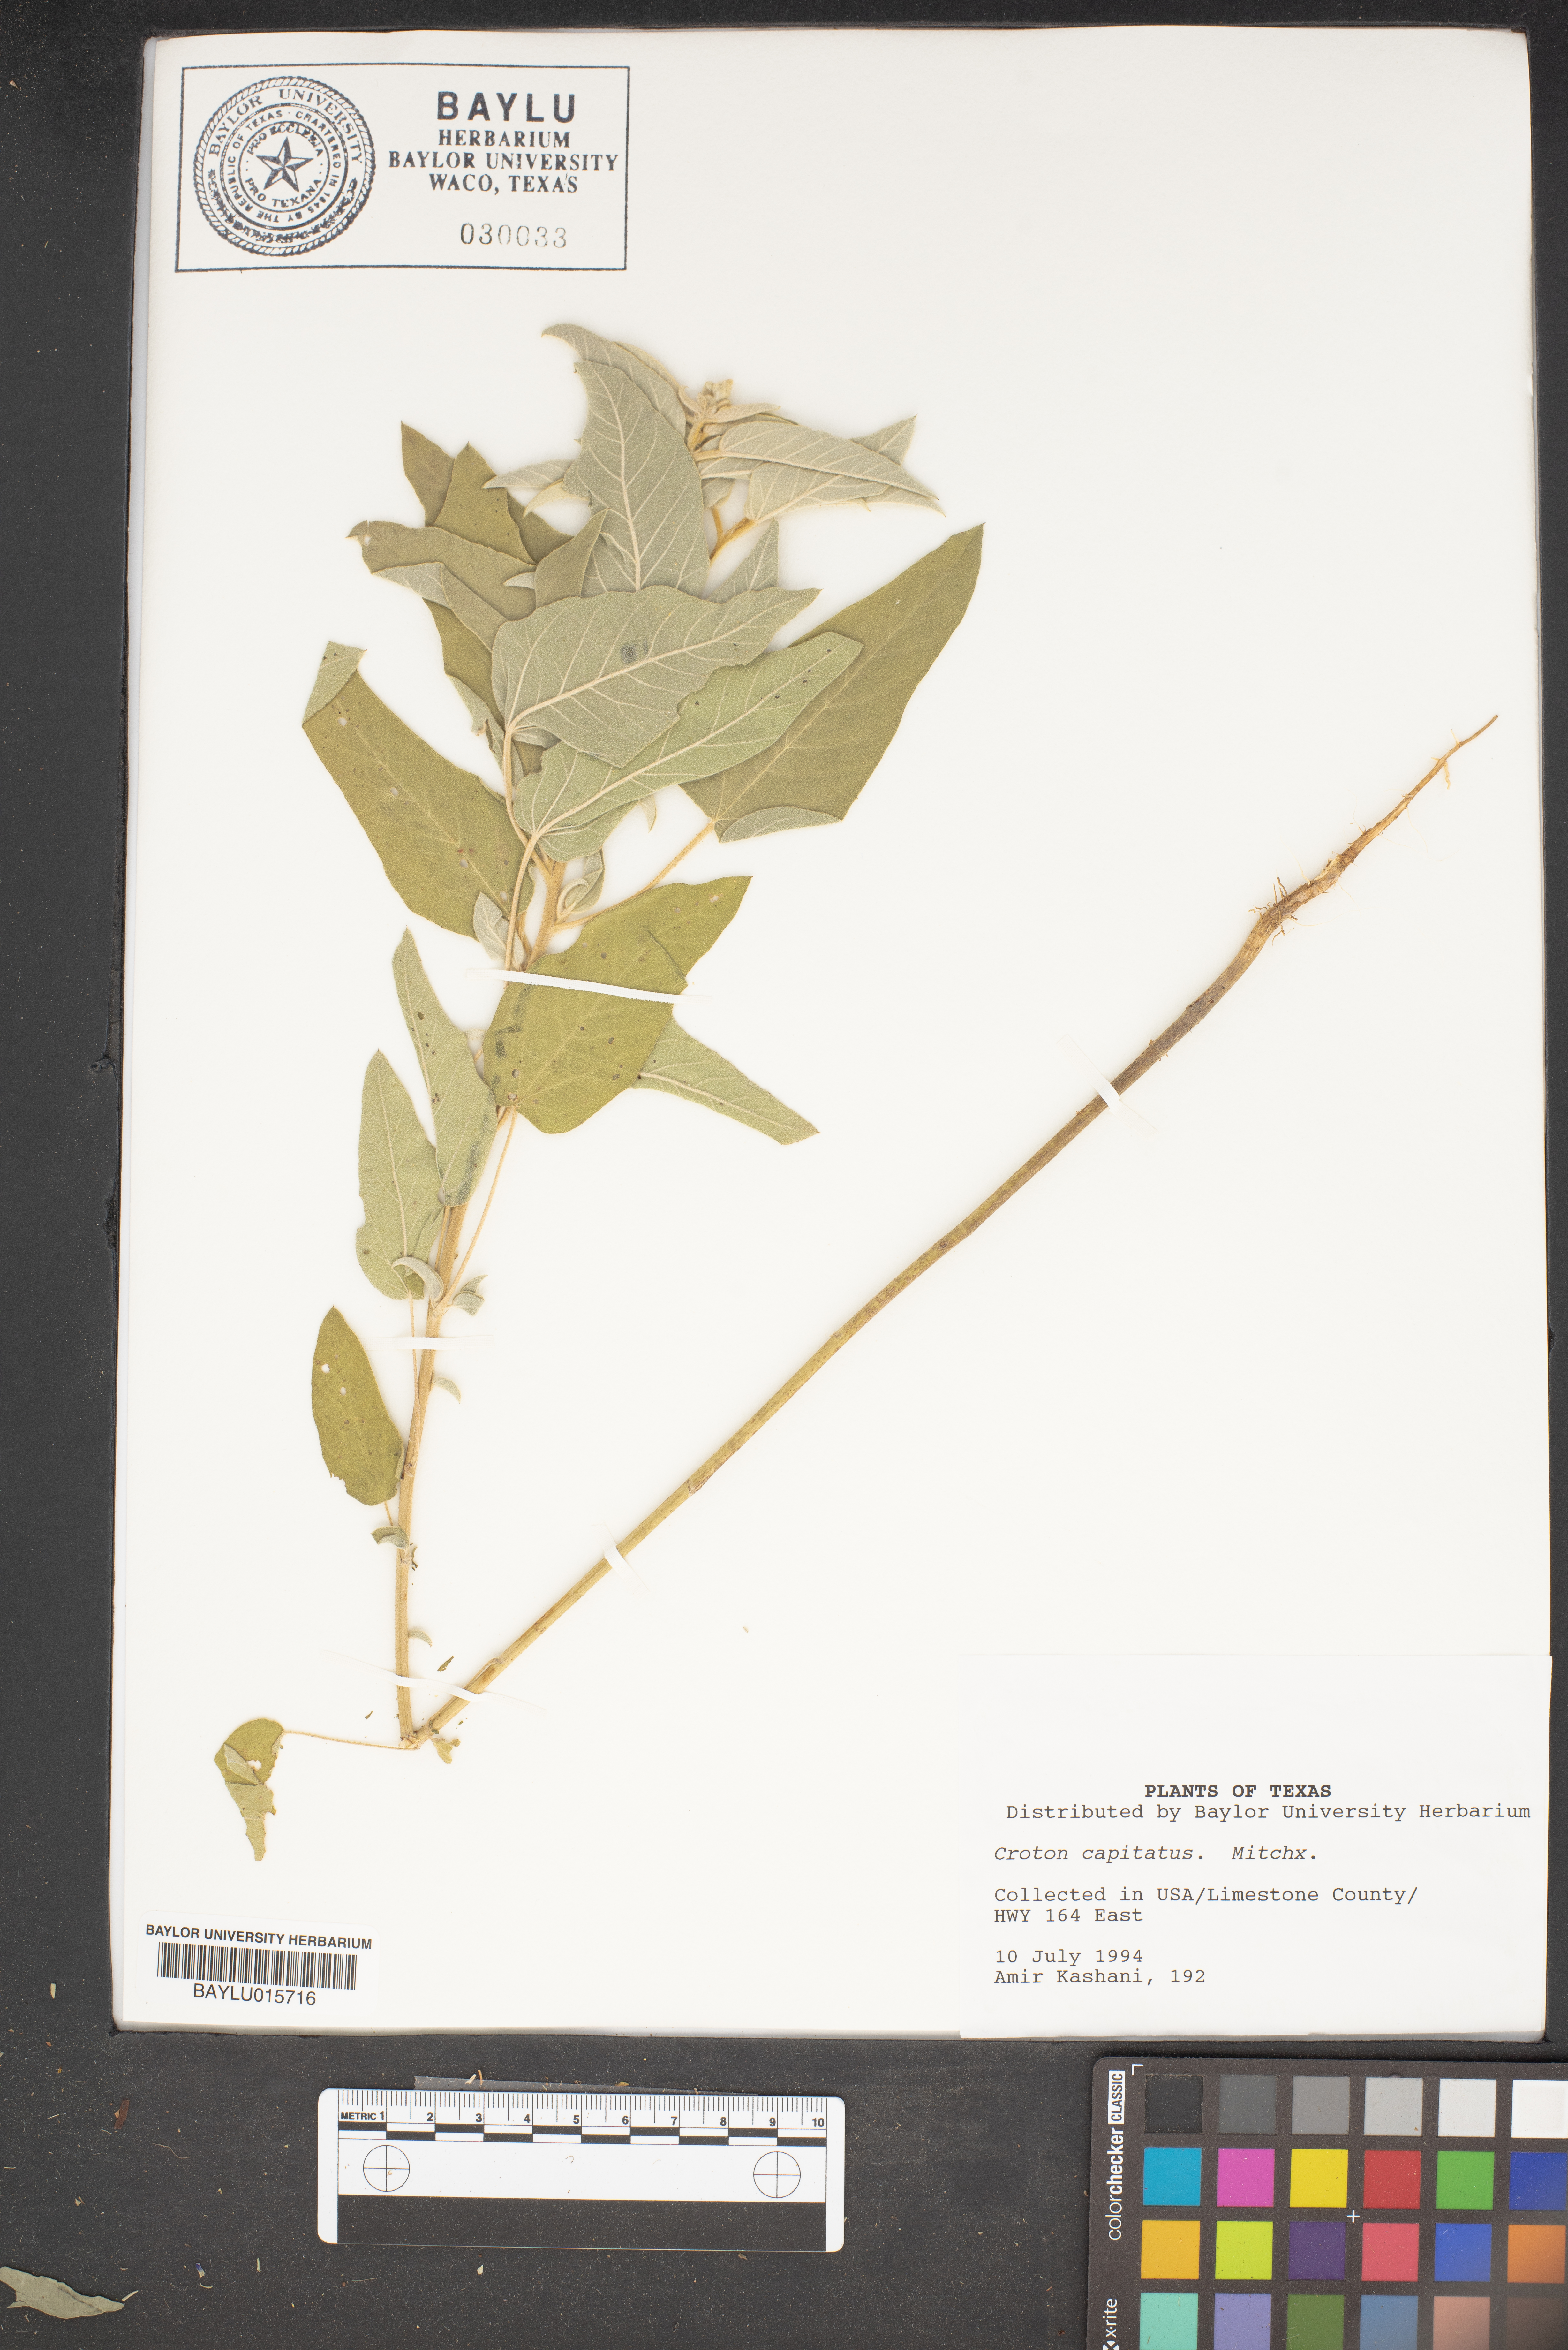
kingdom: Plantae
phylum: Tracheophyta
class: Magnoliopsida
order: Malpighiales
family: Euphorbiaceae
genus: Croton
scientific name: Croton capitatus
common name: Woolly croton
